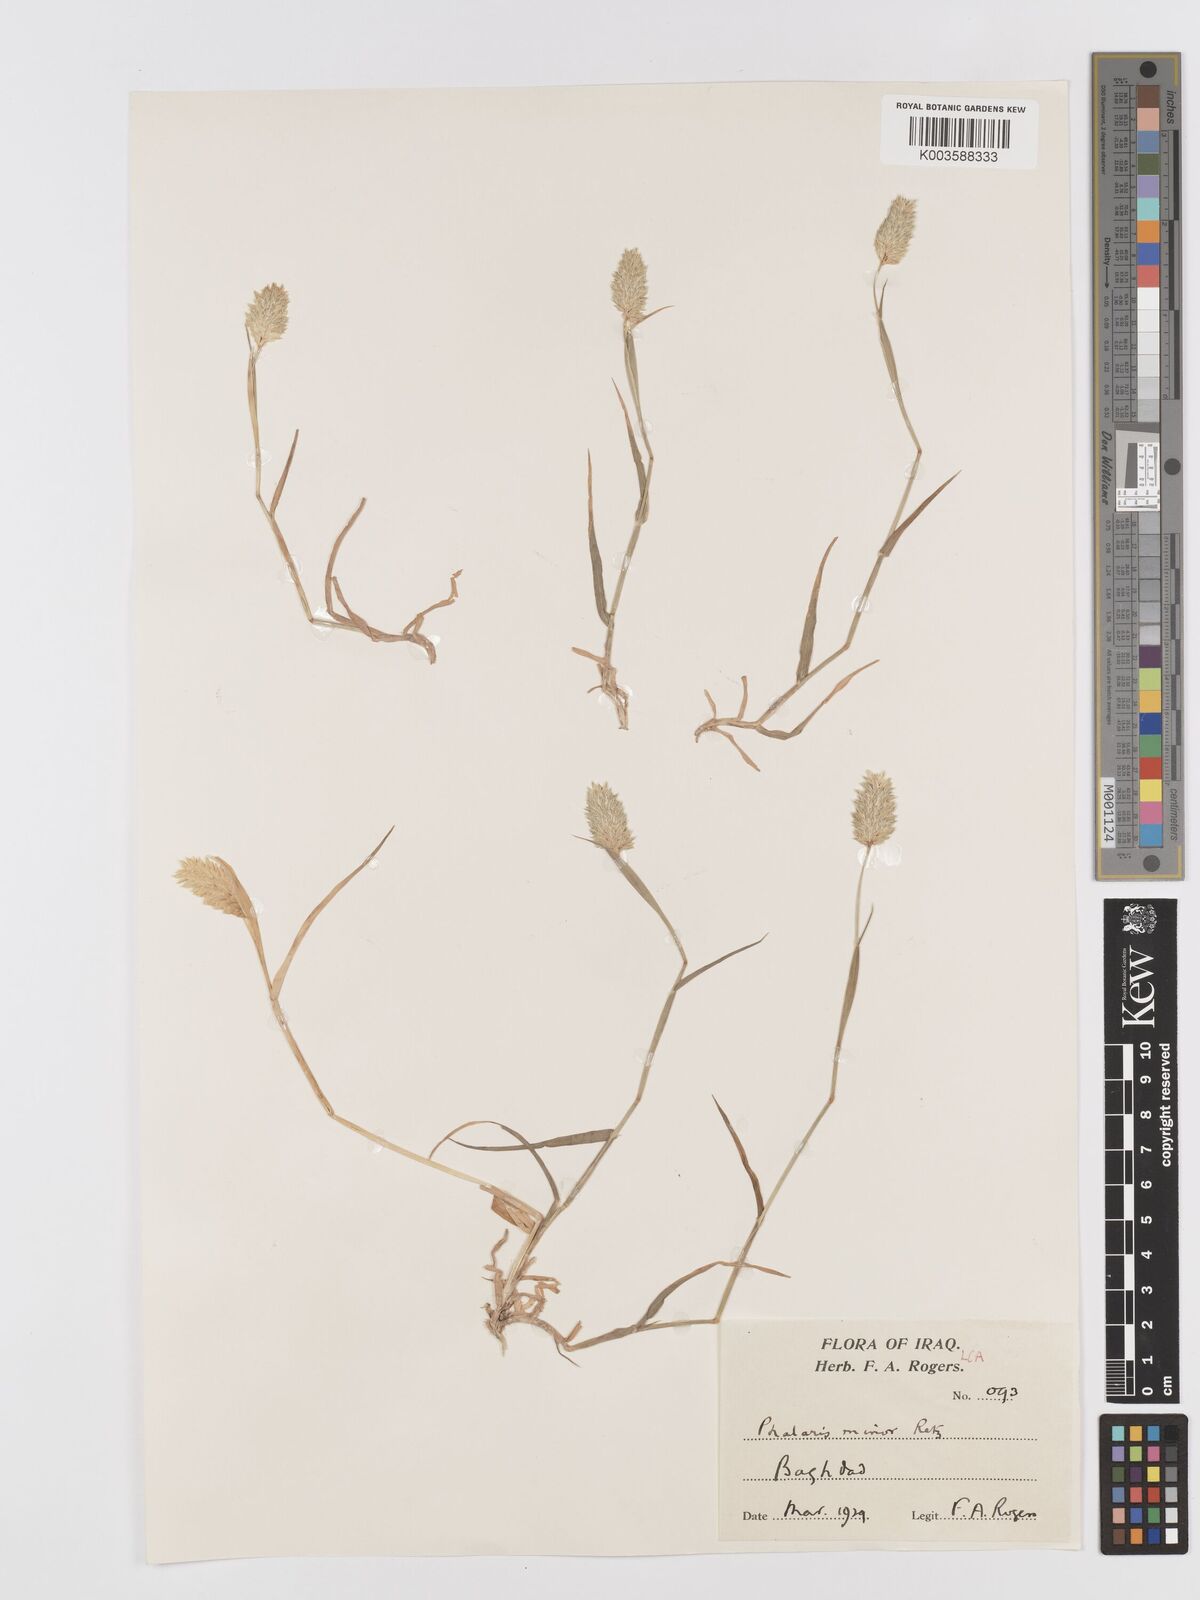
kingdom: Plantae
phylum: Tracheophyta
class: Liliopsida
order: Poales
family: Poaceae
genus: Phalaris
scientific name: Phalaris minor
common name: Littleseed canarygrass
